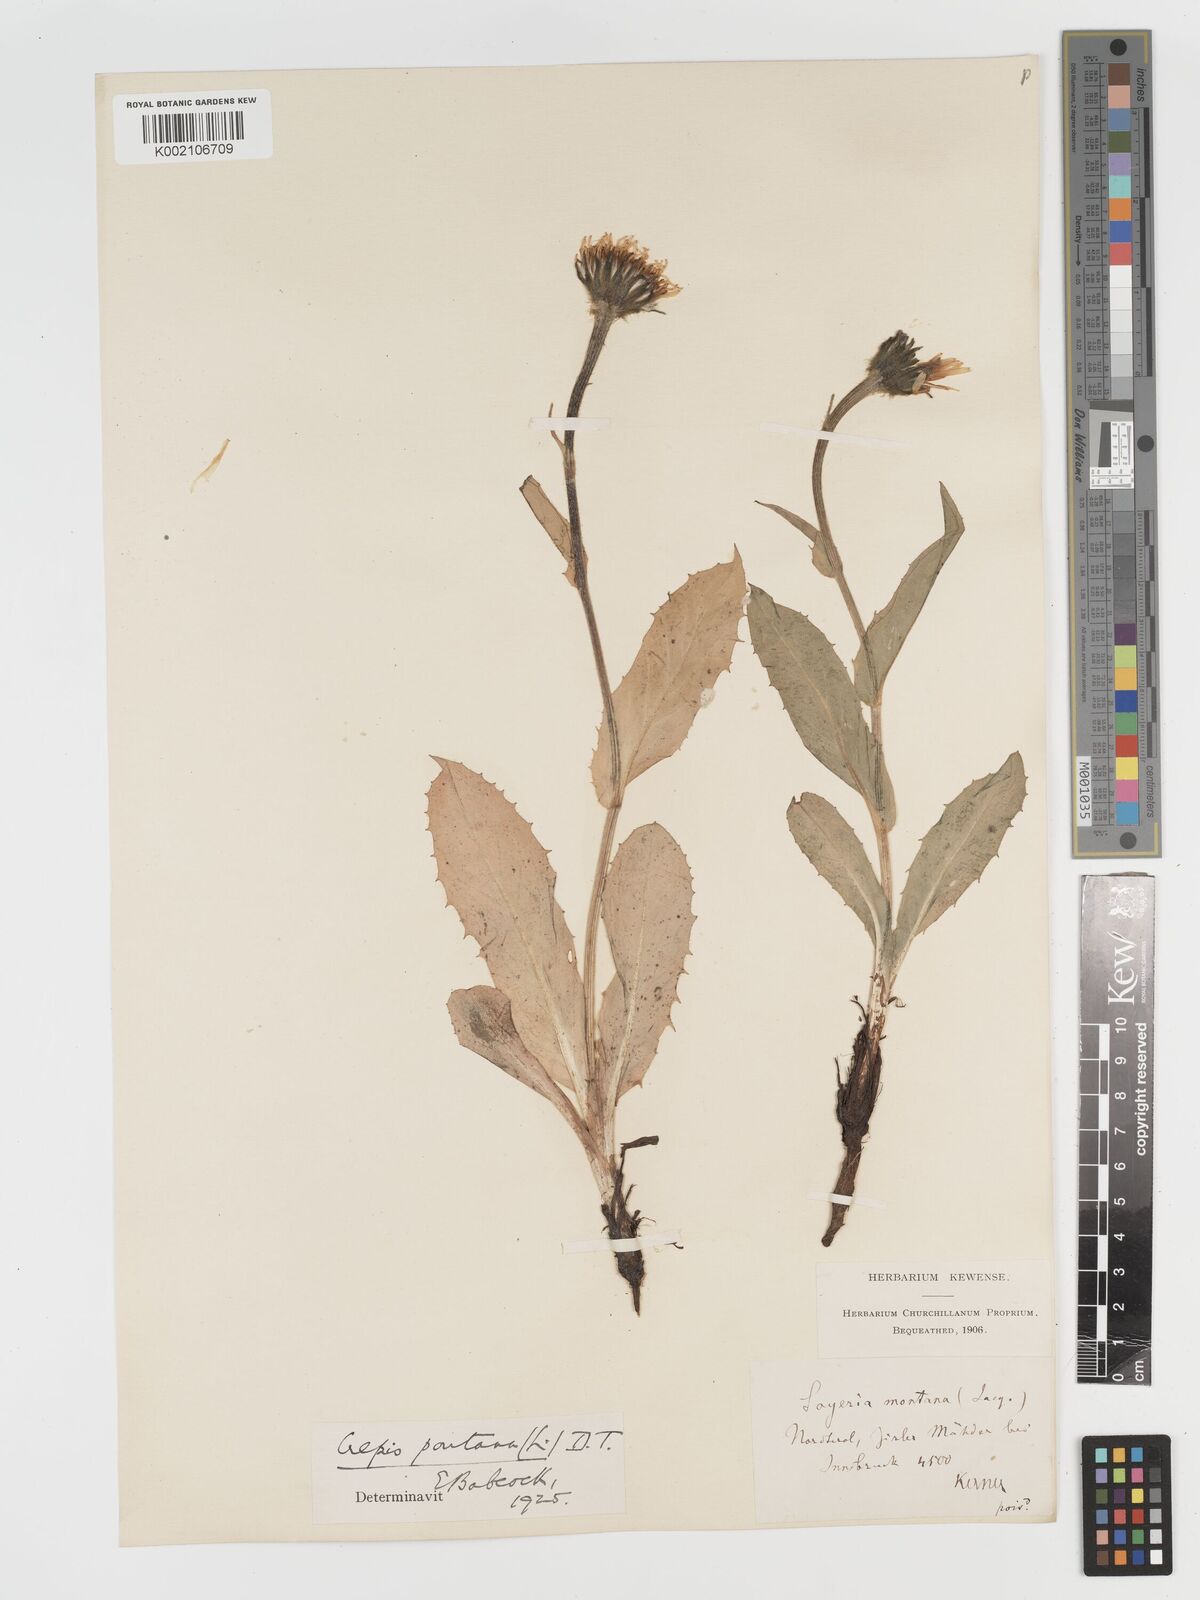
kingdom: Plantae
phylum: Tracheophyta
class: Magnoliopsida
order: Asterales
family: Asteraceae
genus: Crepis
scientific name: Crepis pontana
